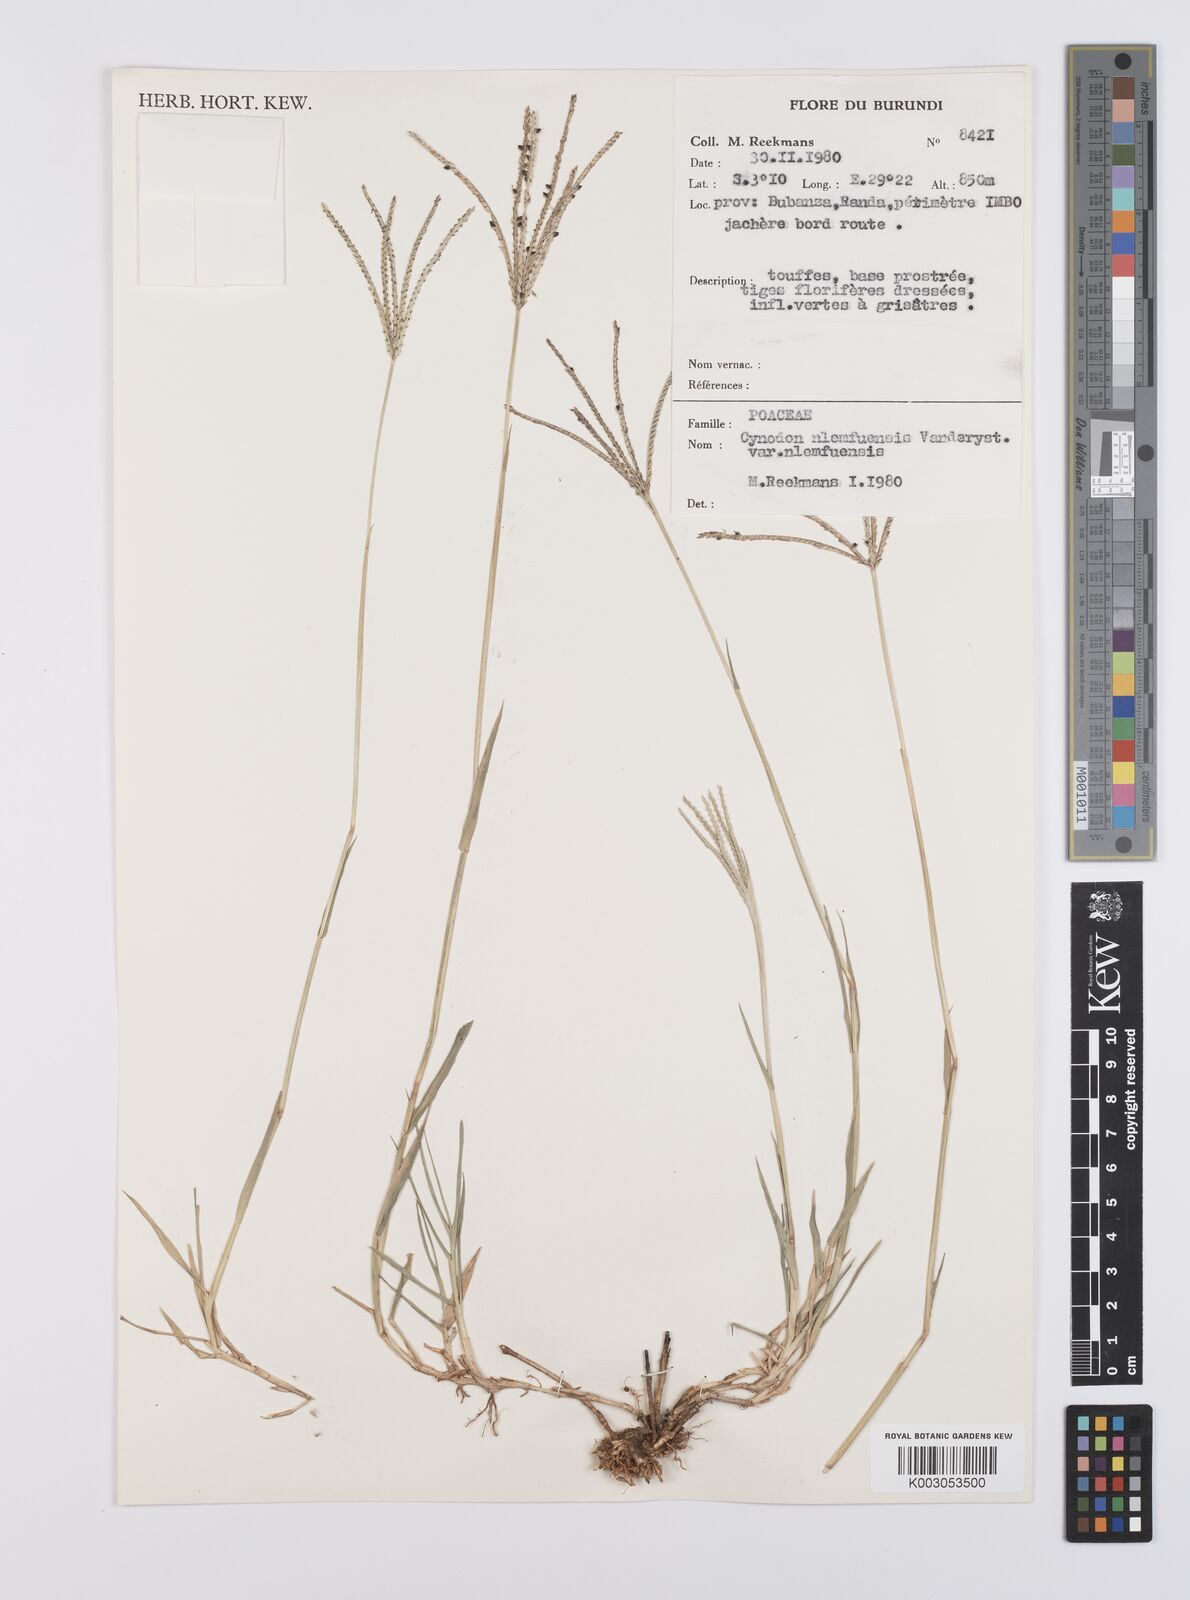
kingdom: Plantae
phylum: Tracheophyta
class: Liliopsida
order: Poales
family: Poaceae
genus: Cynodon
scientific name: Cynodon nlemfuensis
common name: African bermudagrass
